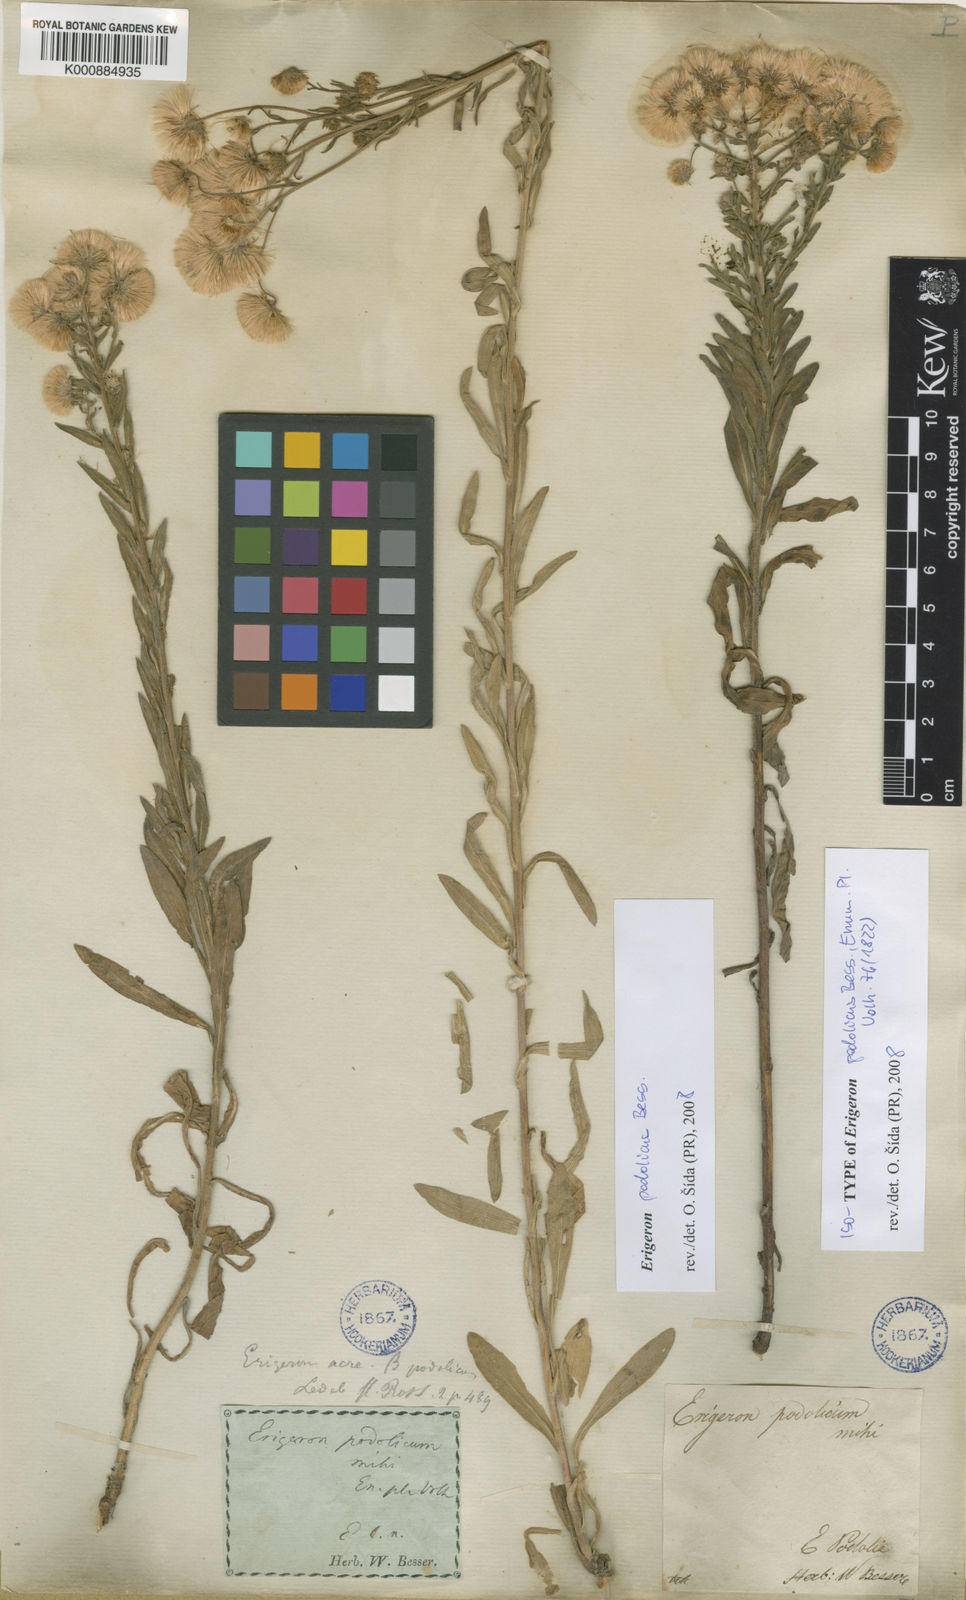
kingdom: Plantae
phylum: Tracheophyta
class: Magnoliopsida
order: Asterales
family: Asteraceae
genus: Erigeron
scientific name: Erigeron podolicus
